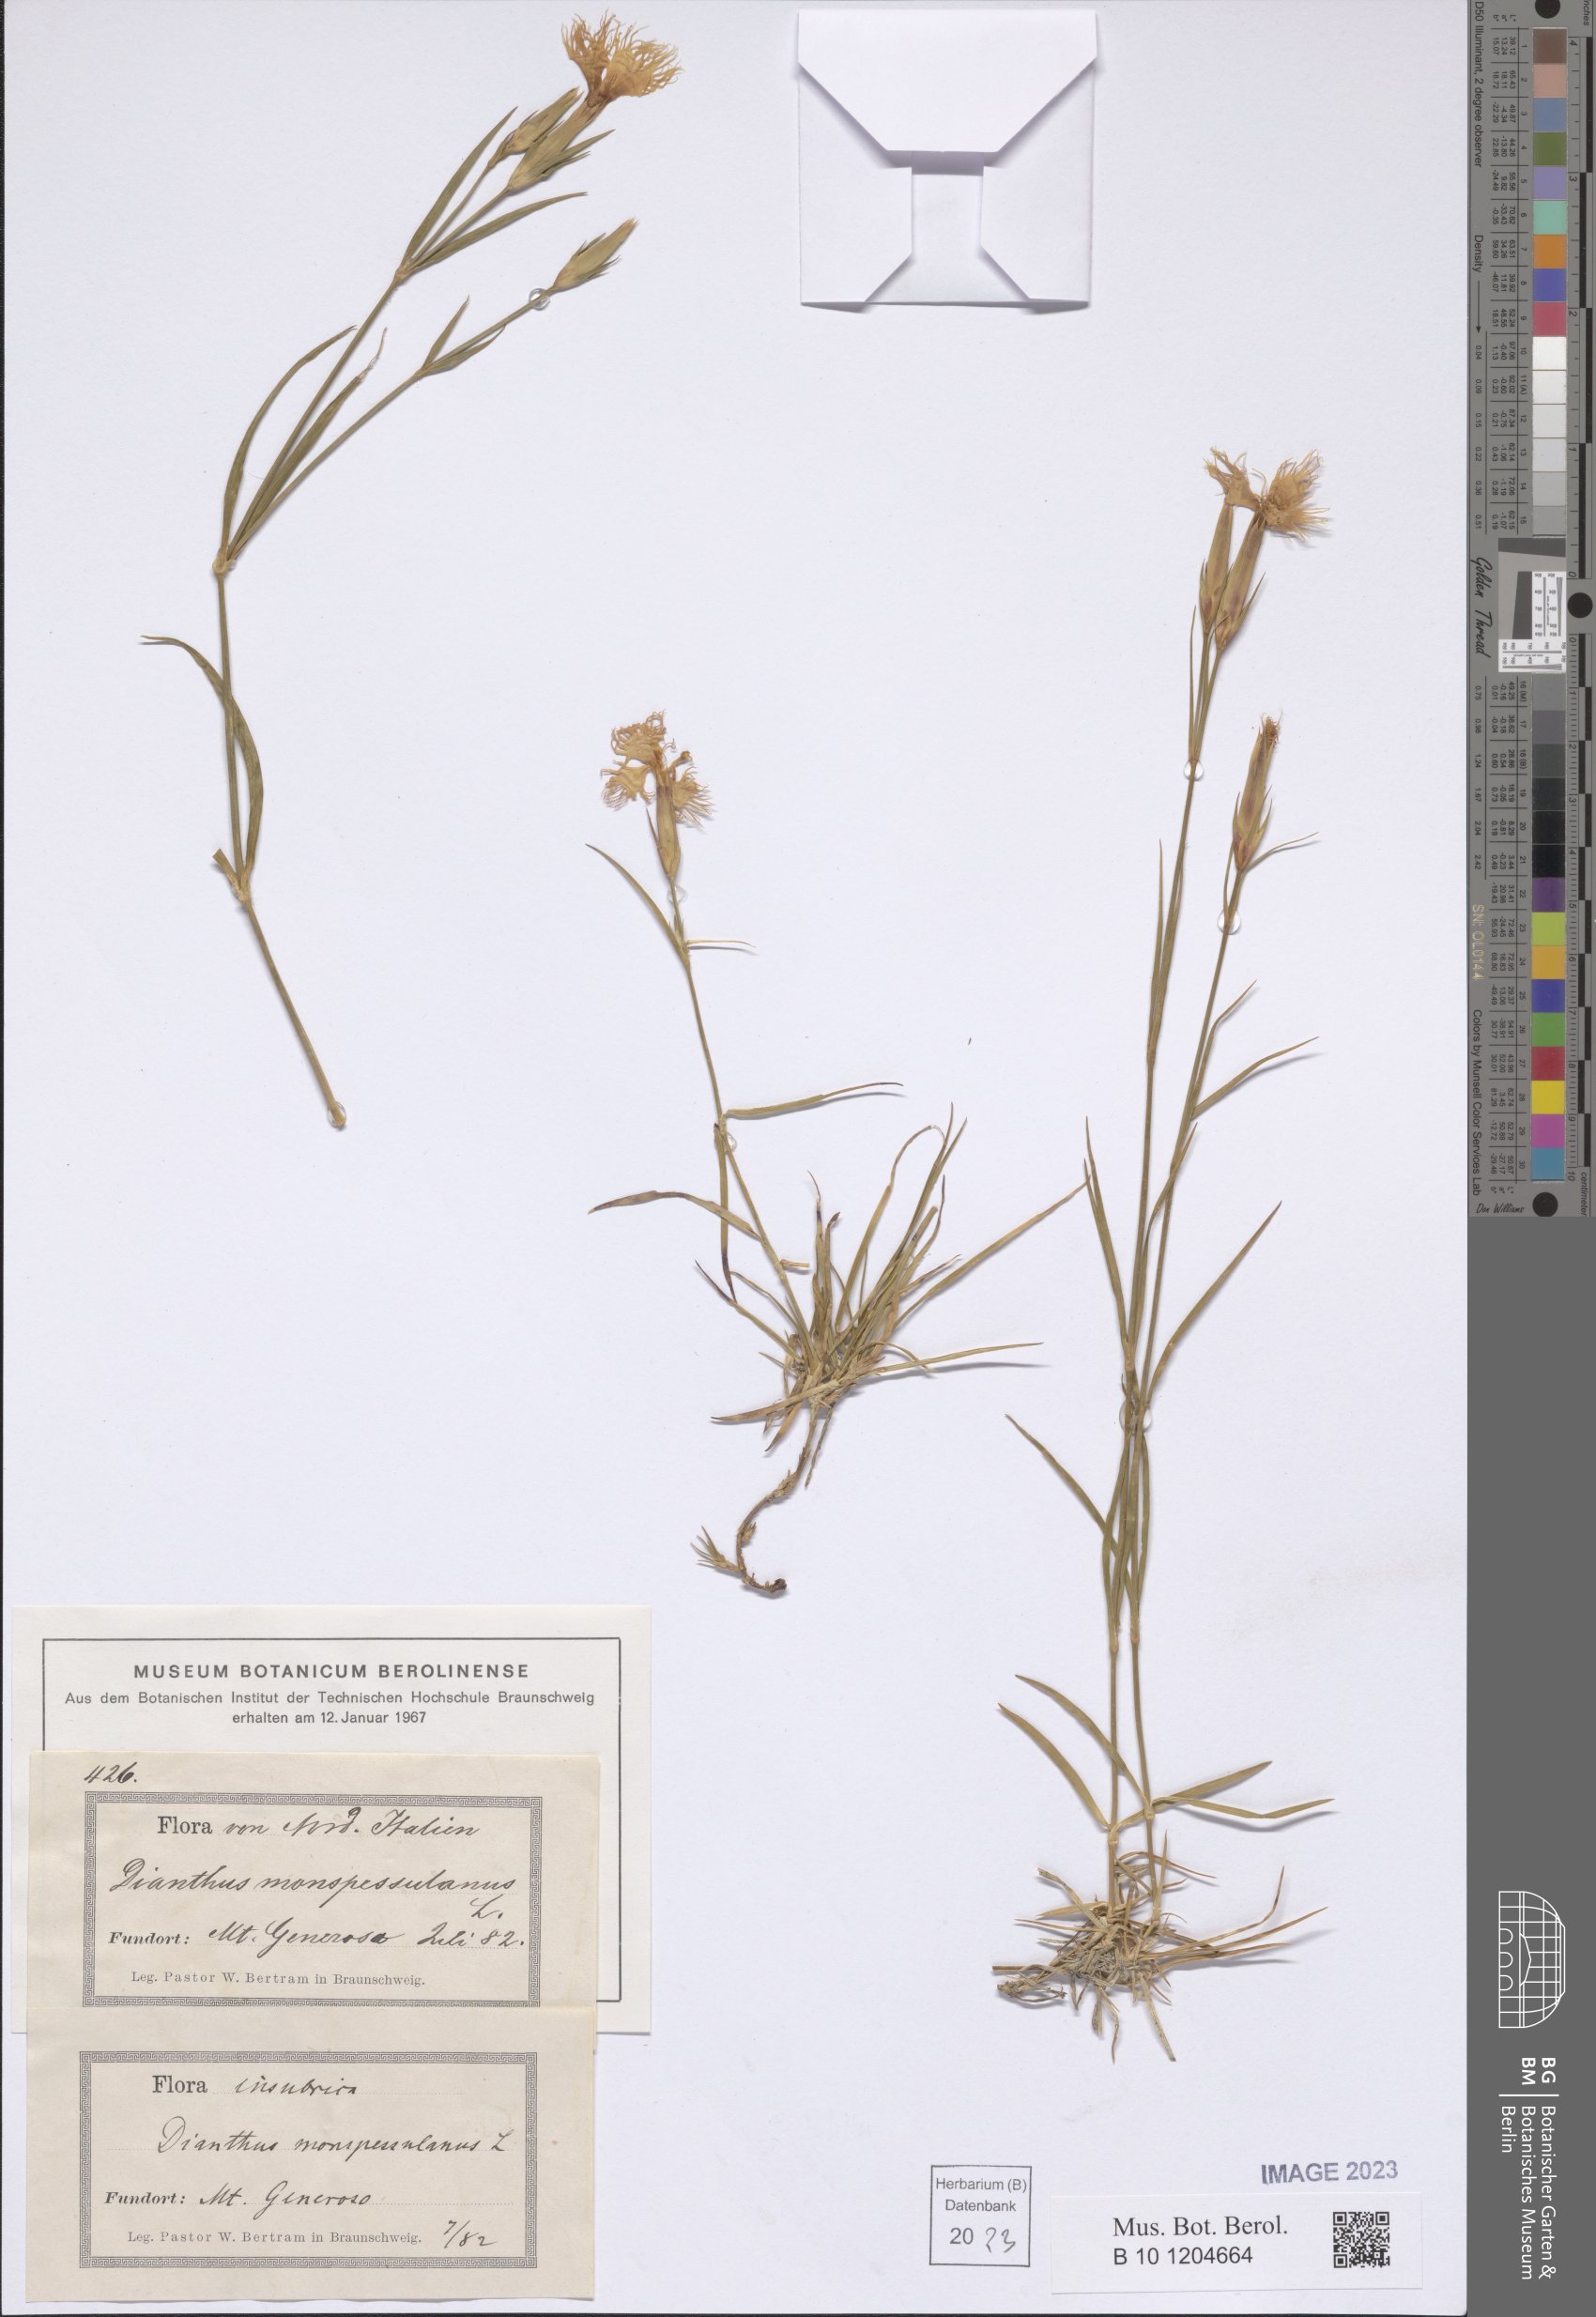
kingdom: Plantae
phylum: Tracheophyta
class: Magnoliopsida
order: Caryophyllales
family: Caryophyllaceae
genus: Dianthus
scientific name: Dianthus hyssopifolius
